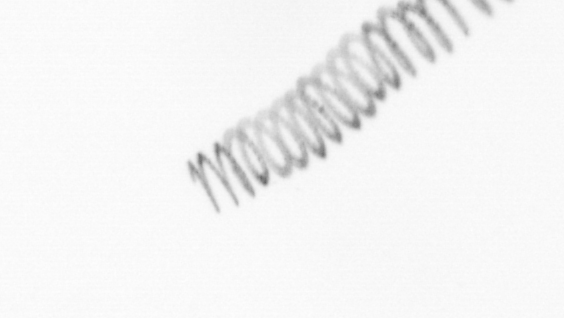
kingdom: Chromista
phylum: Ochrophyta
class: Bacillariophyceae
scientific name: Bacillariophyceae
